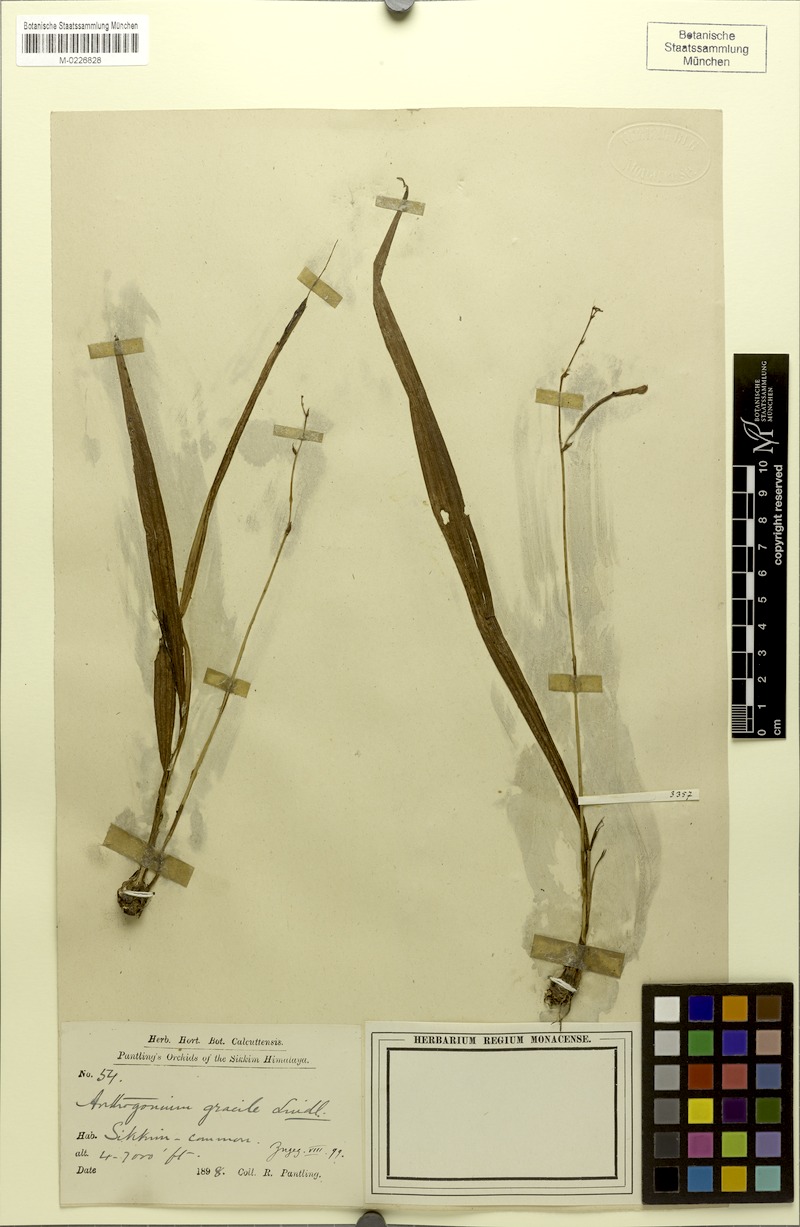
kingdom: Plantae
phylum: Tracheophyta
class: Liliopsida
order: Asparagales
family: Orchidaceae
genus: Anthogonium
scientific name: Anthogonium gracile
